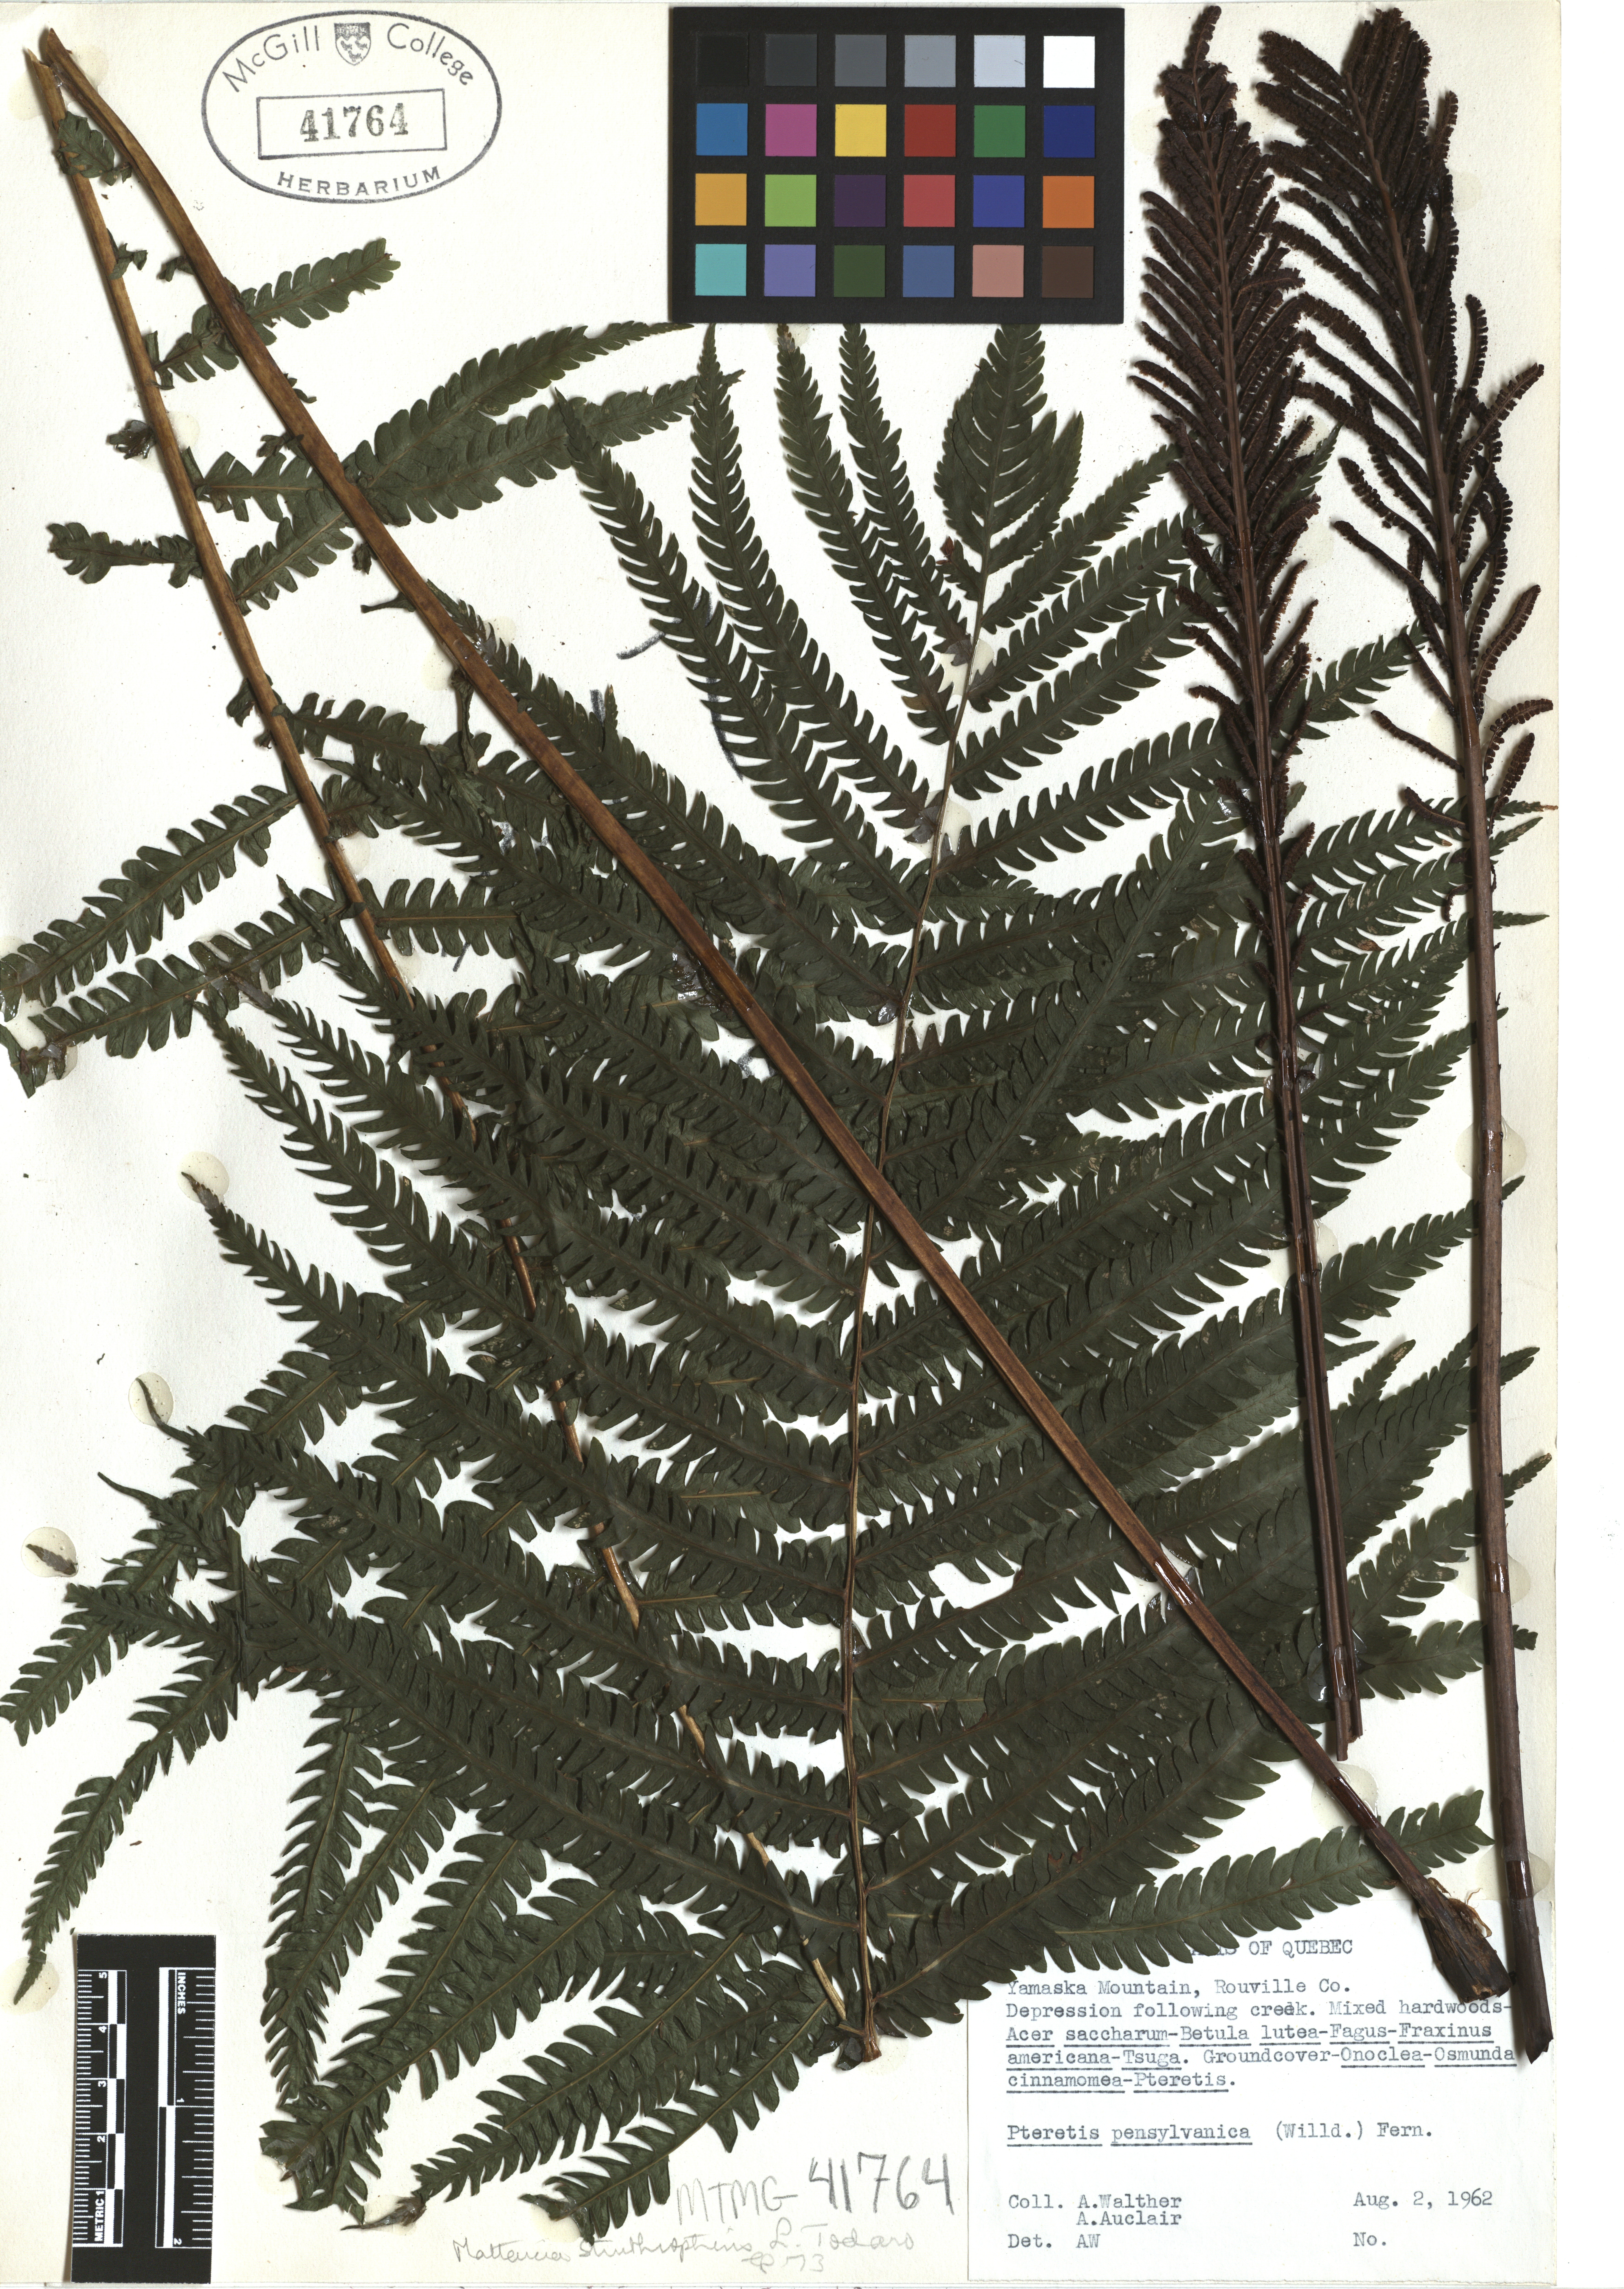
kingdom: Plantae
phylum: Tracheophyta
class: Polypodiopsida
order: Polypodiales
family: Onocleaceae
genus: Matteuccia
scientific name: Matteuccia struthiopteris
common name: Ostrich fern
